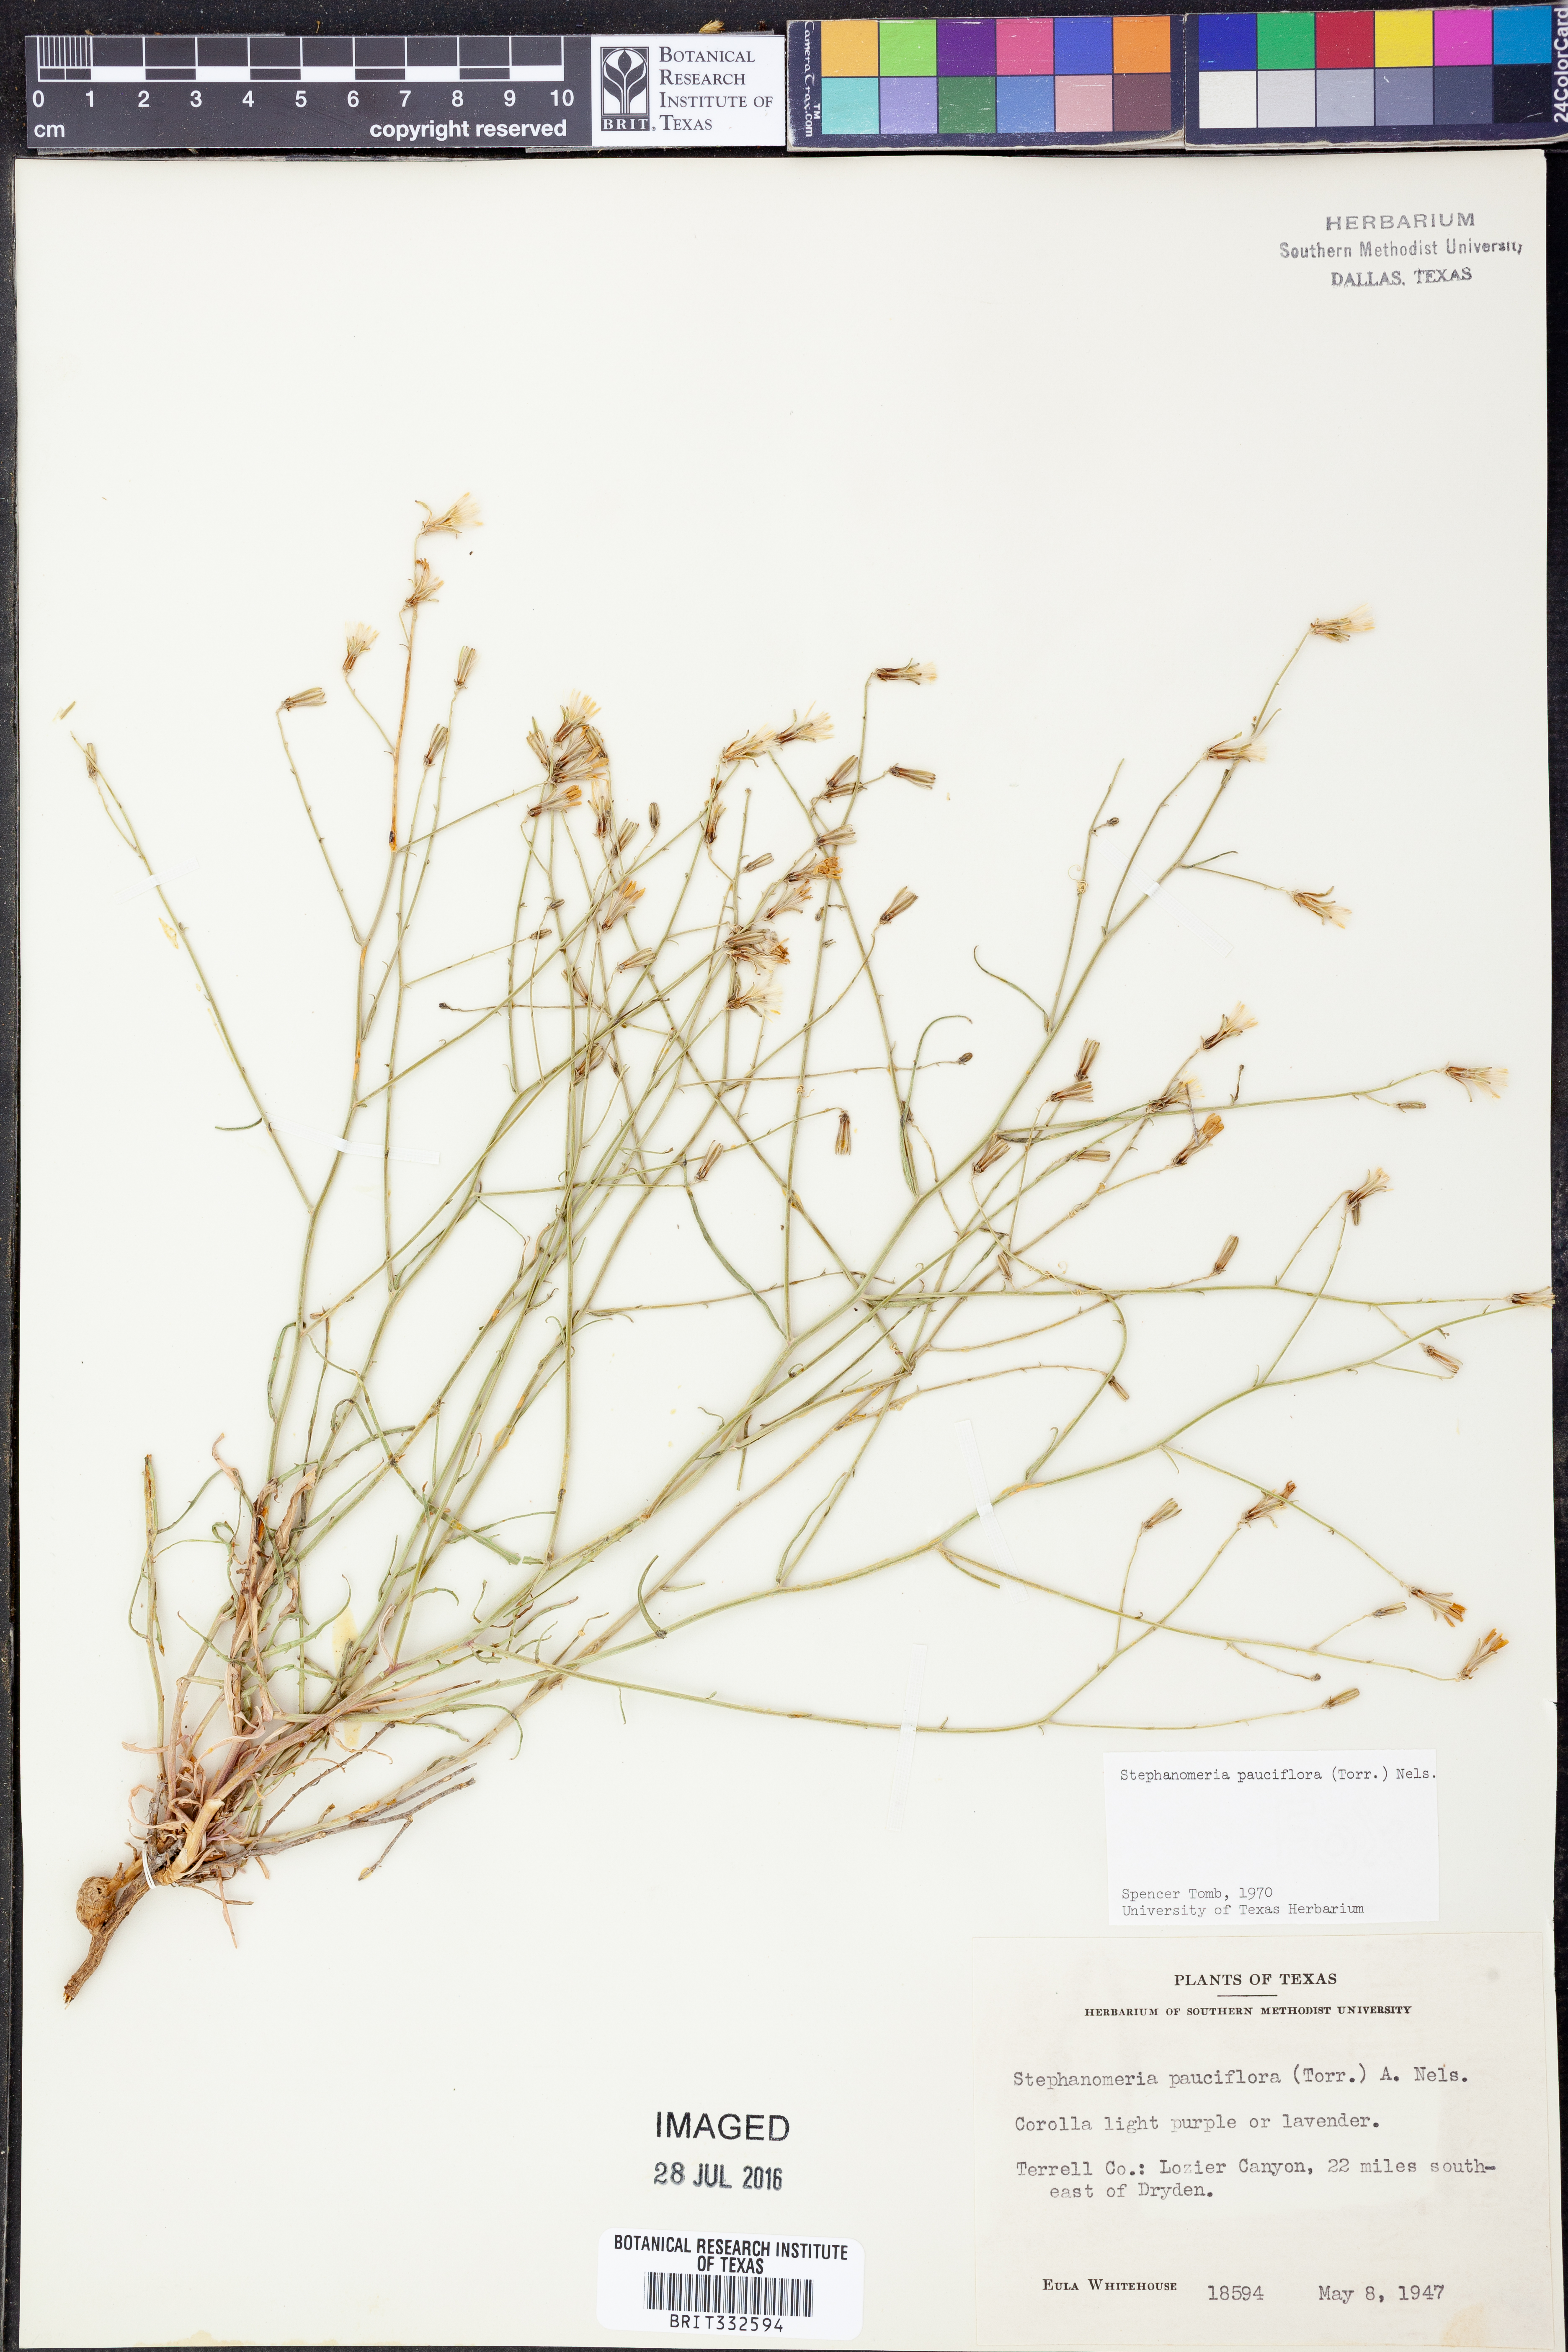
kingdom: Plantae
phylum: Tracheophyta
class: Magnoliopsida
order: Asterales
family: Asteraceae
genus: Stephanomeria
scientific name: Stephanomeria pauciflora
